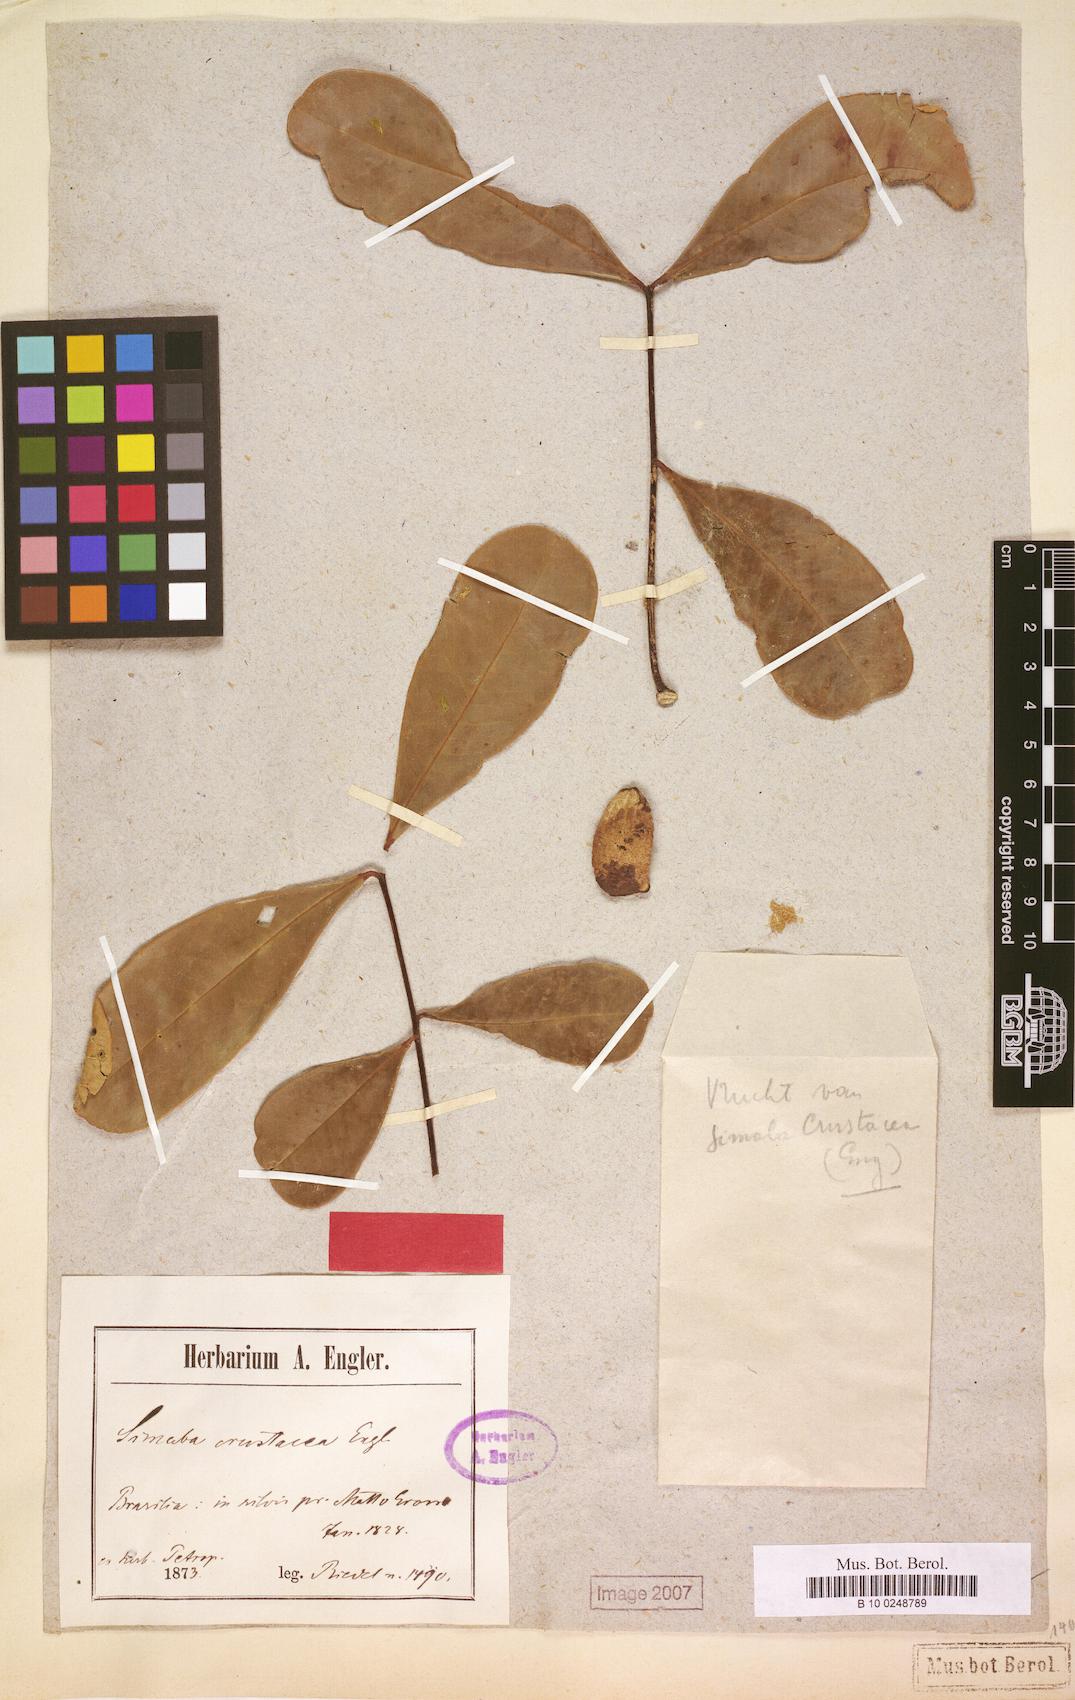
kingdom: Plantae
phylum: Tracheophyta
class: Magnoliopsida
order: Sapindales
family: Simaroubaceae
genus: Simaba
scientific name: Simaba orinocensis
